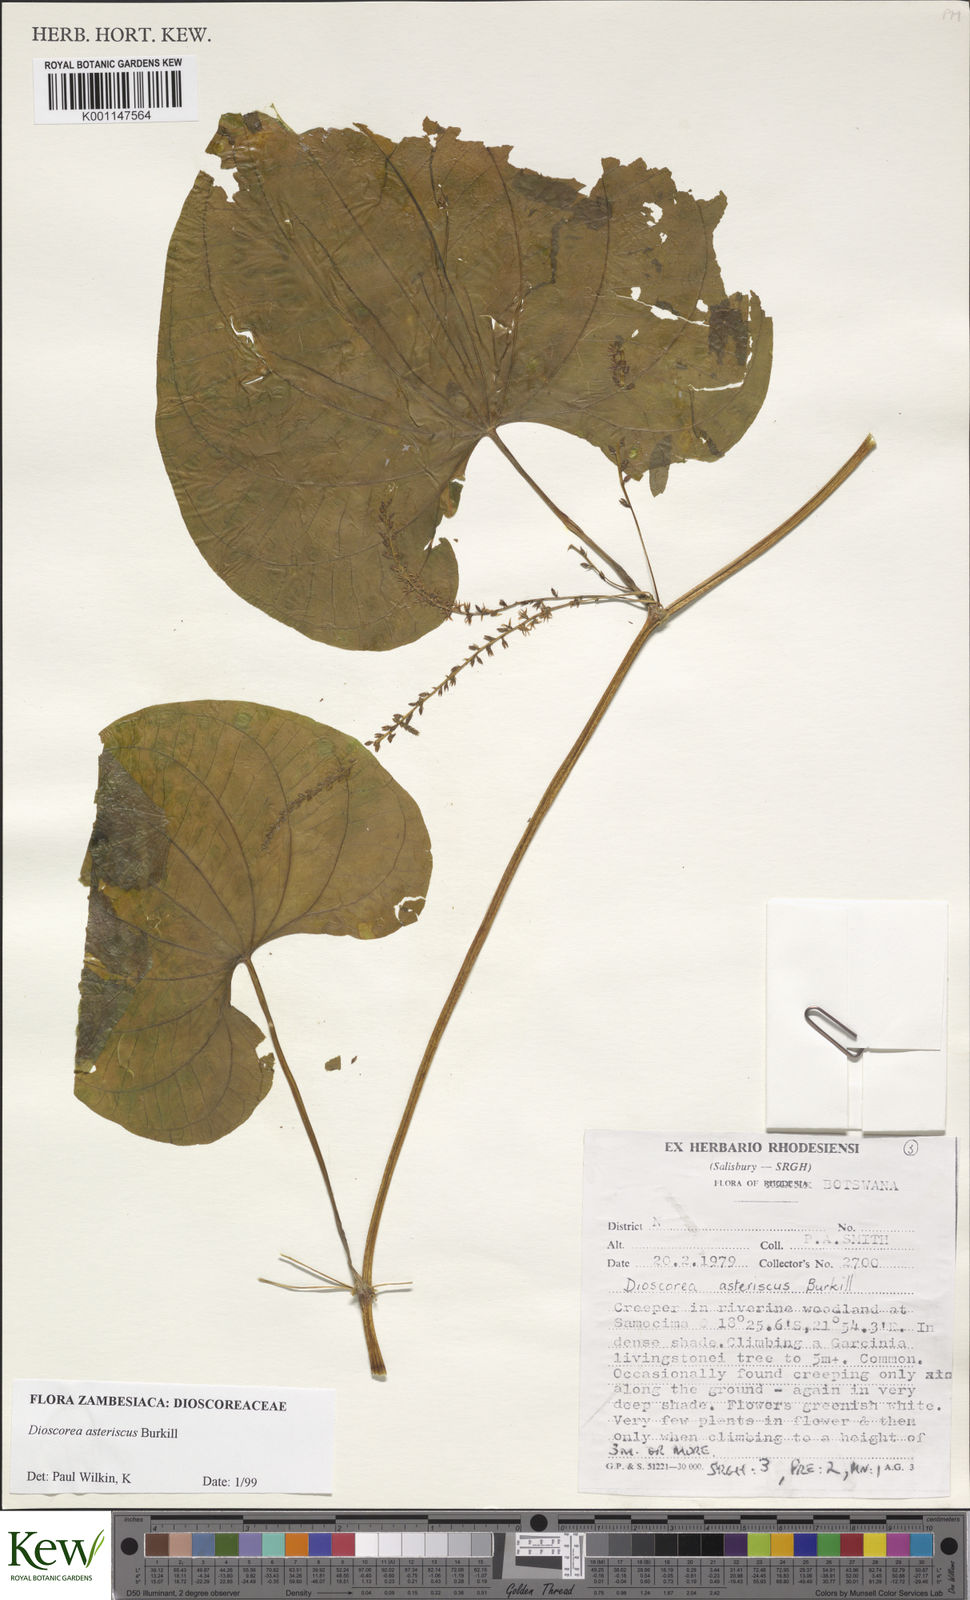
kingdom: Plantae
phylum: Tracheophyta
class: Liliopsida
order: Dioscoreales
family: Dioscoreaceae
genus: Dioscorea
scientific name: Dioscorea asteriscus
